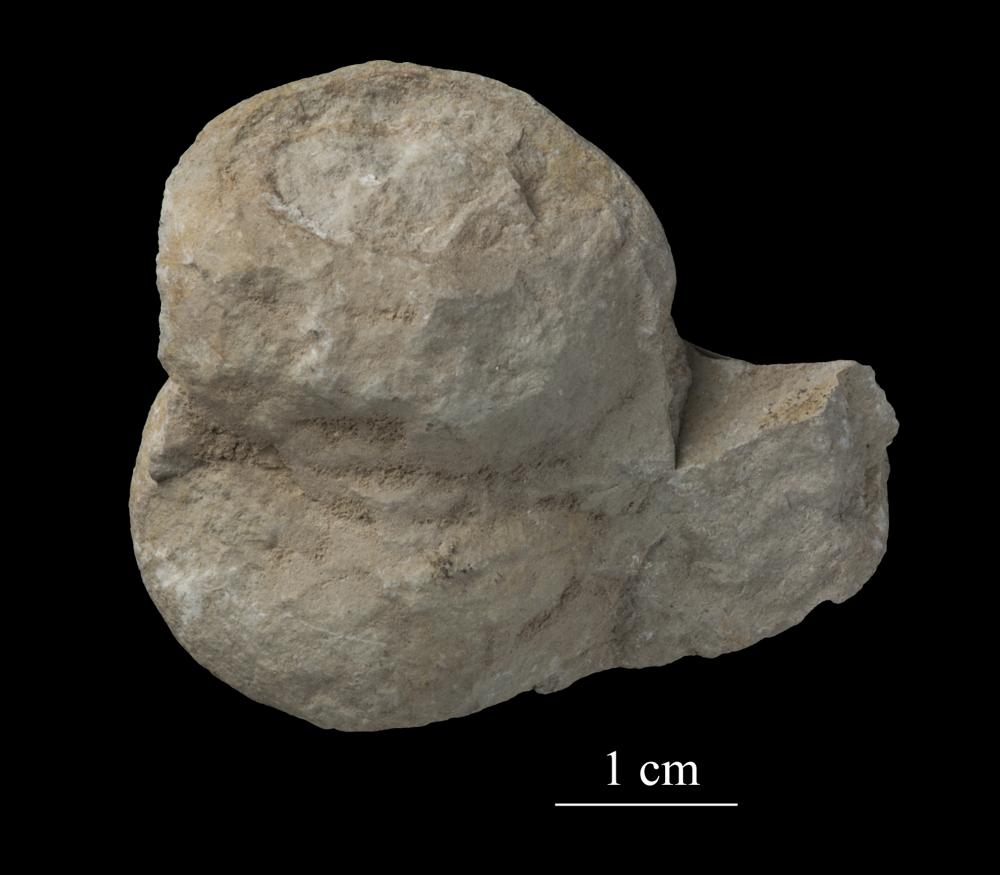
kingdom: Animalia
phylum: Mollusca
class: Gastropoda
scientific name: Gastropoda
